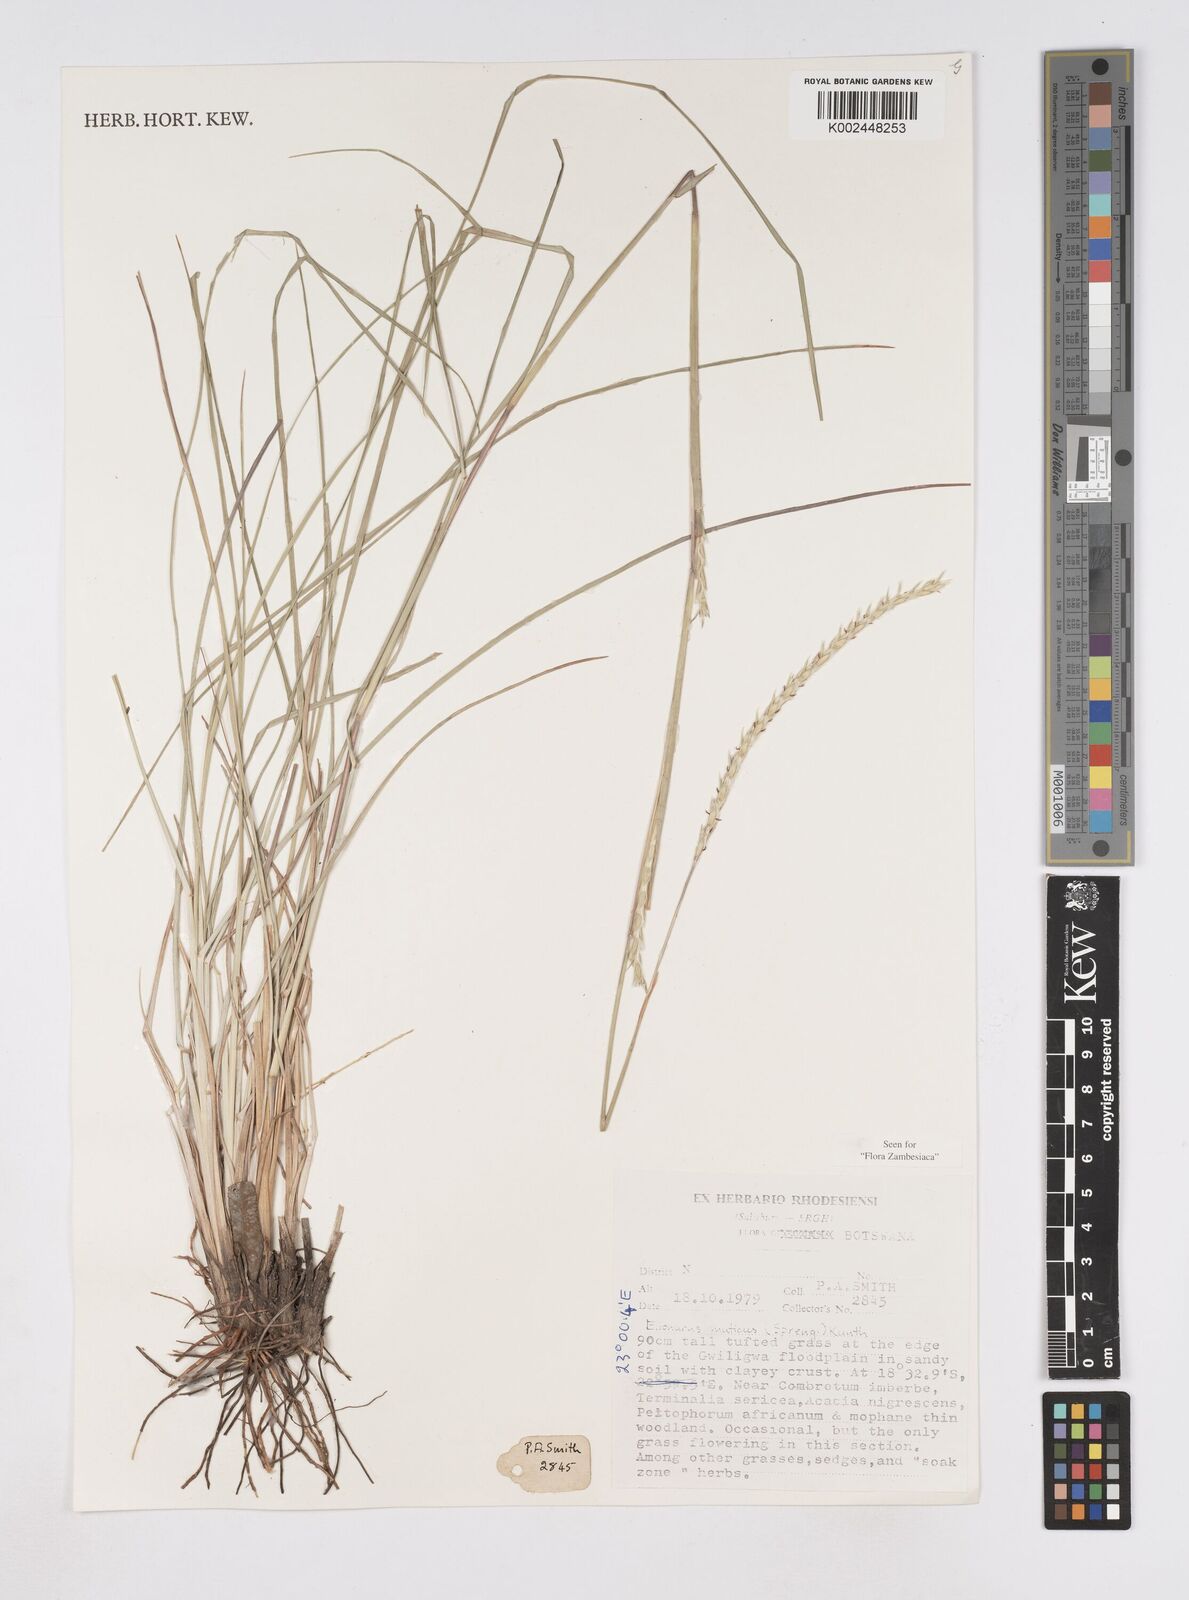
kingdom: Plantae
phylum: Tracheophyta
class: Liliopsida
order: Poales
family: Poaceae
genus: Elionurus
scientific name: Elionurus muticus
